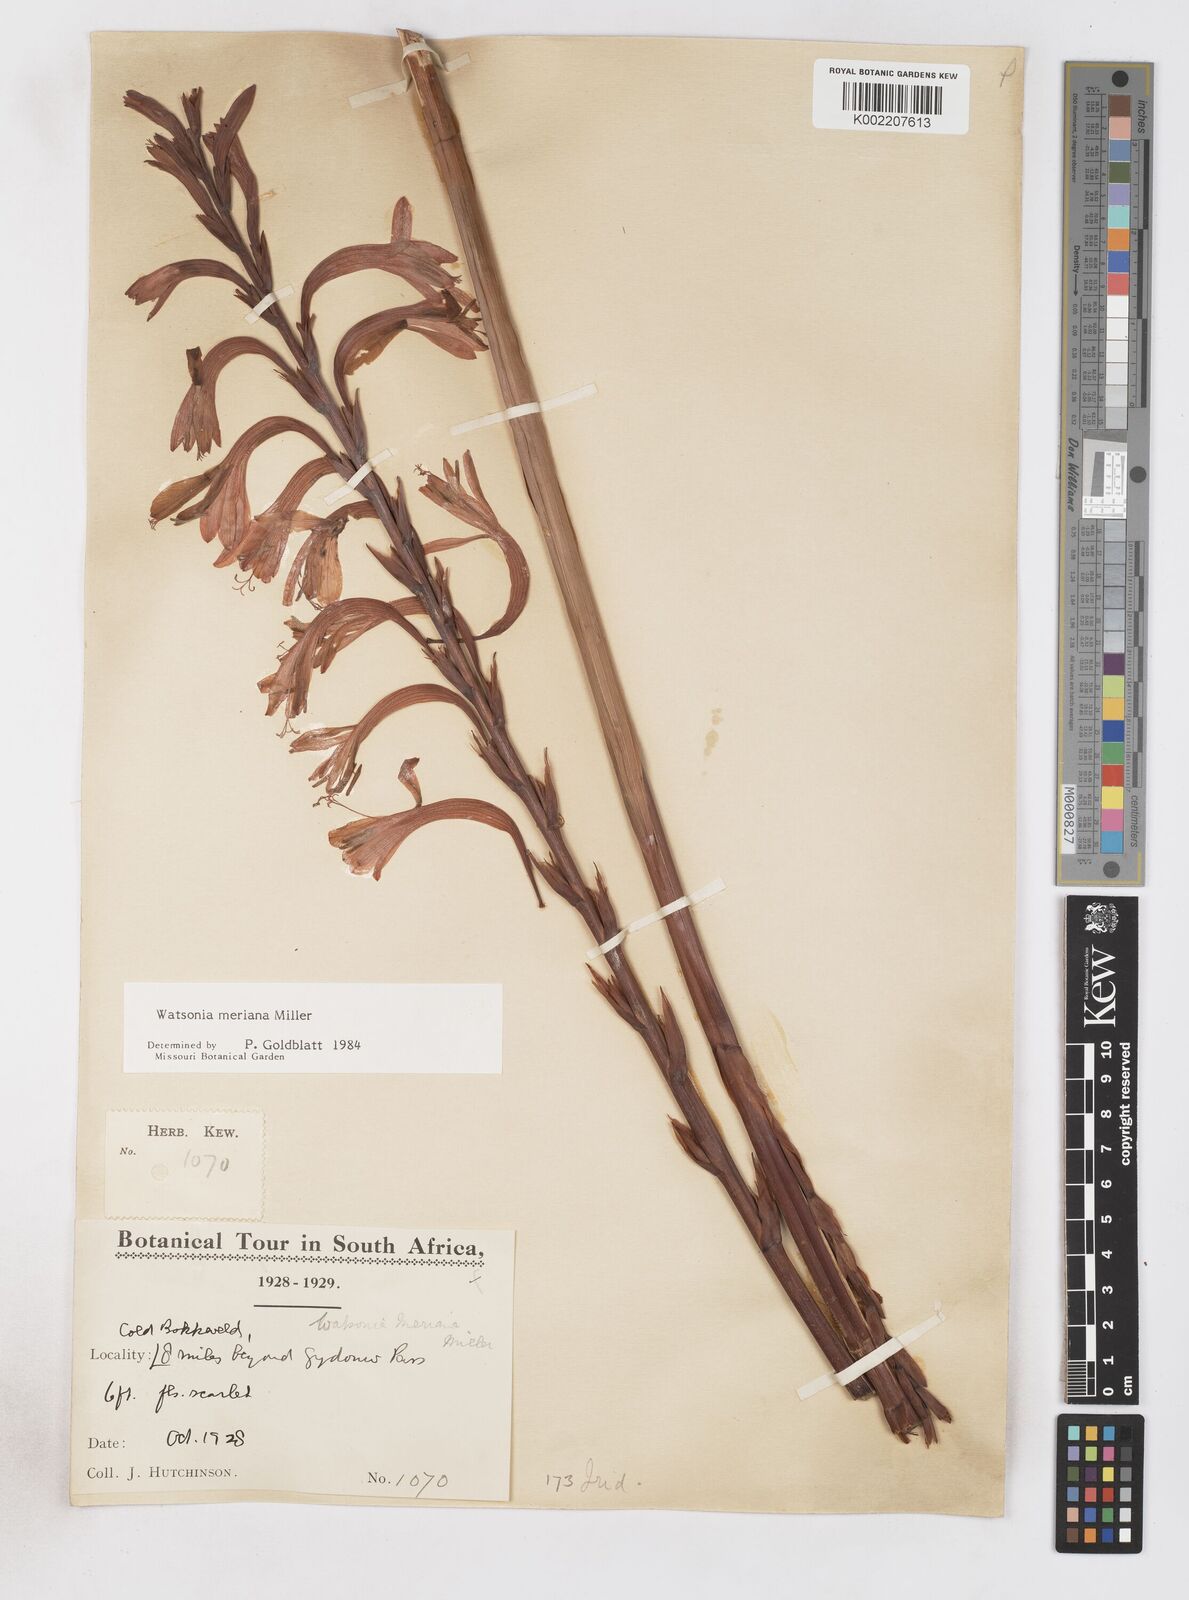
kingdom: Plantae
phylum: Tracheophyta
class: Liliopsida
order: Asparagales
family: Iridaceae
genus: Watsonia
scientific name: Watsonia meriana
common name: Bulbil bugle-lily
